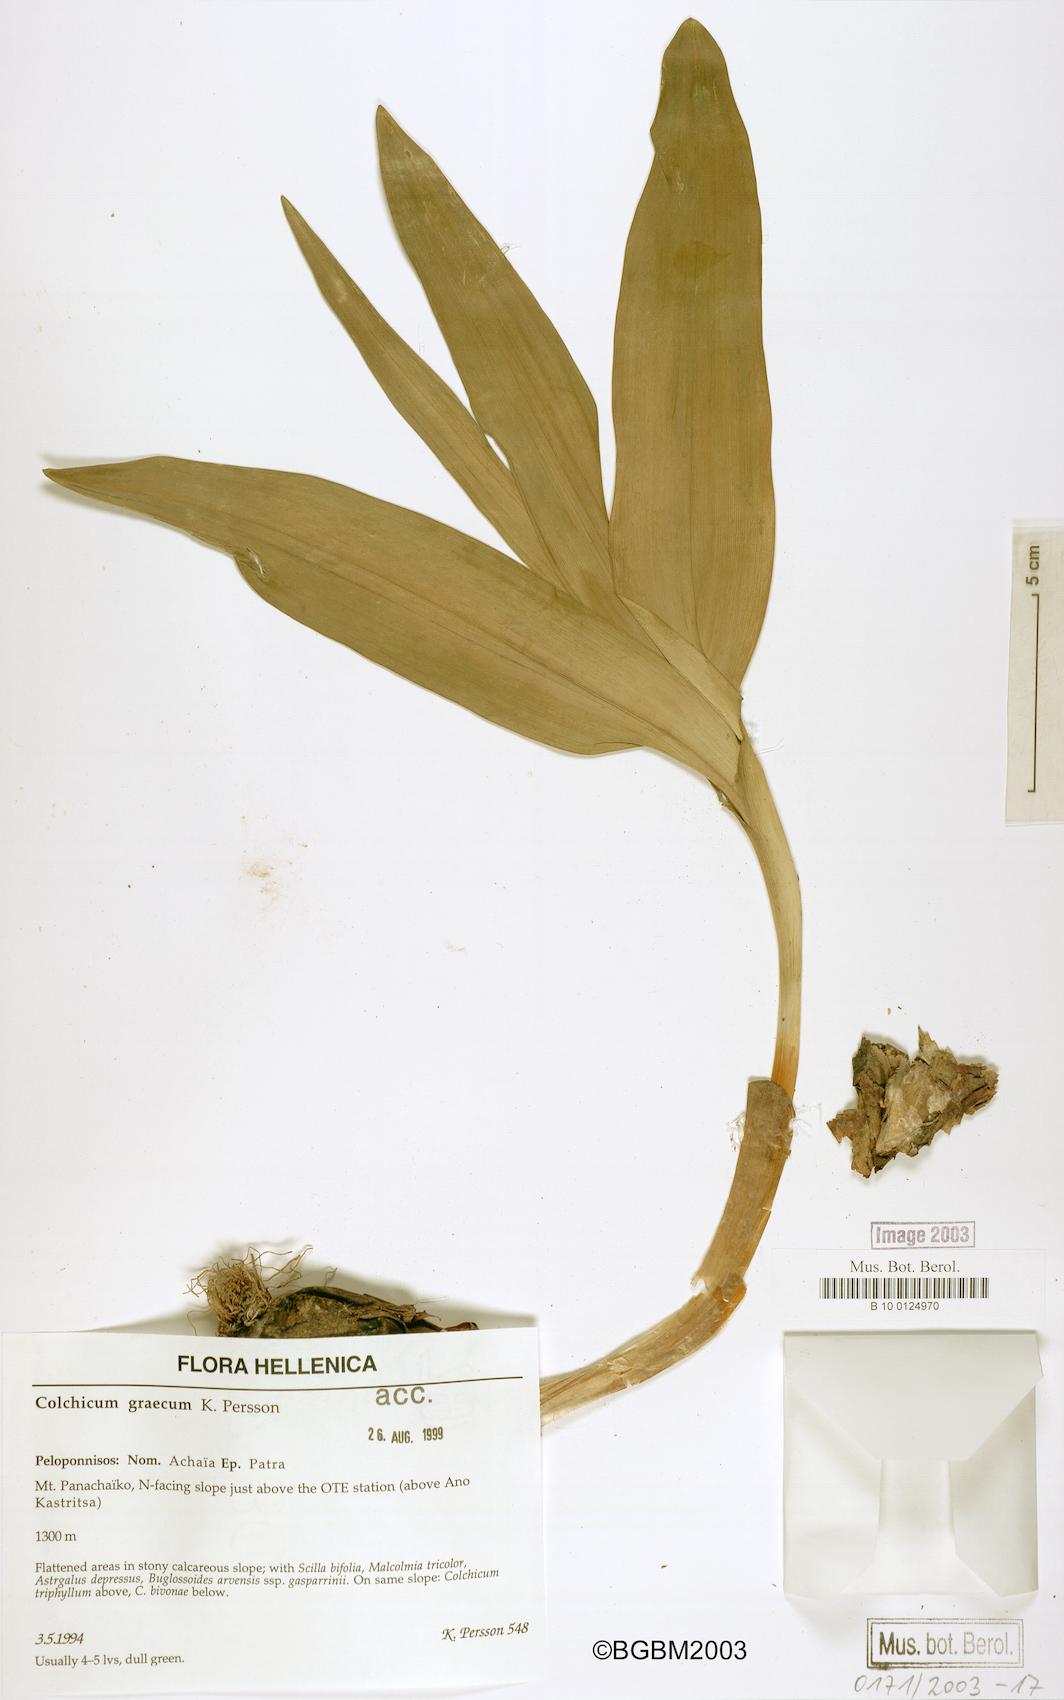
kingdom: Plantae
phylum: Tracheophyta
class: Liliopsida
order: Liliales
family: Colchicaceae
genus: Colchicum
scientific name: Colchicum graecum
